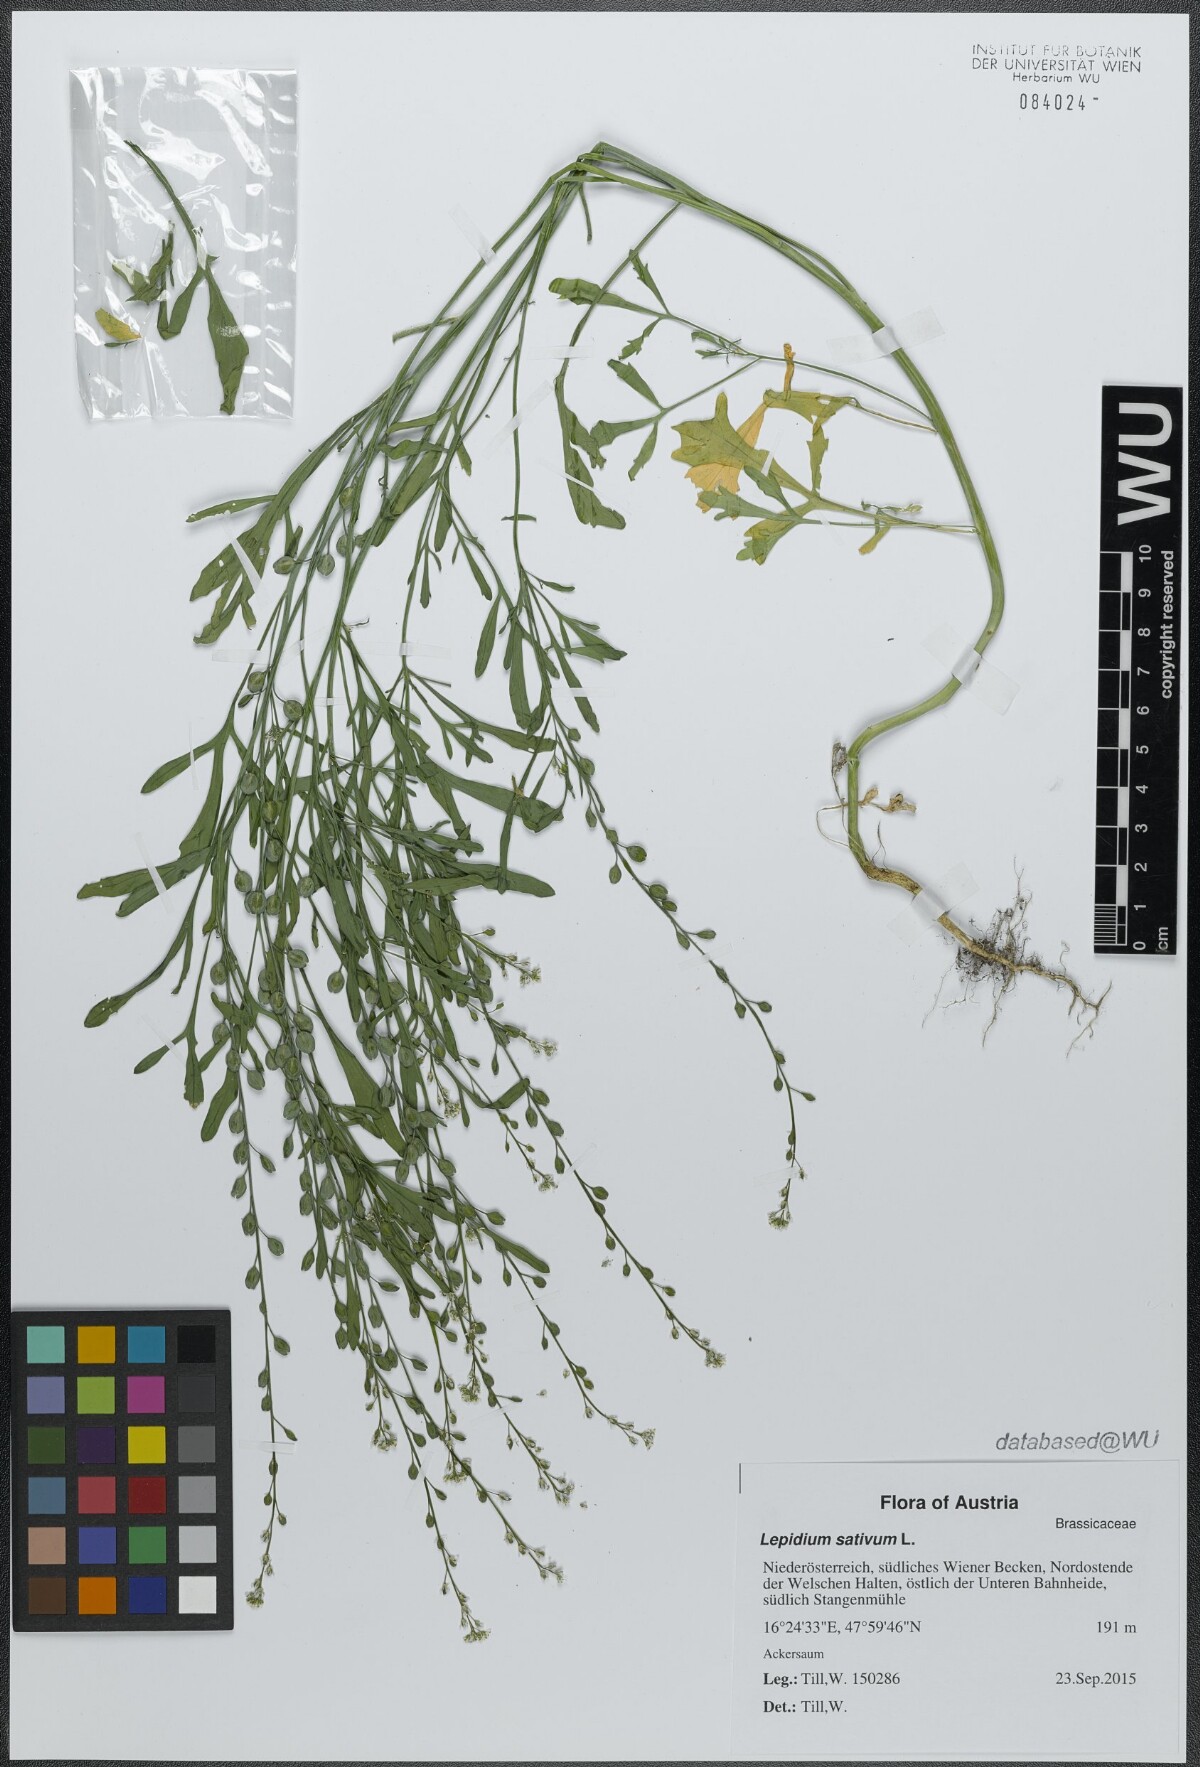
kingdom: Plantae
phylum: Tracheophyta
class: Magnoliopsida
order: Brassicales
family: Brassicaceae
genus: Lepidium
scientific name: Lepidium sativum
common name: Garden cress
